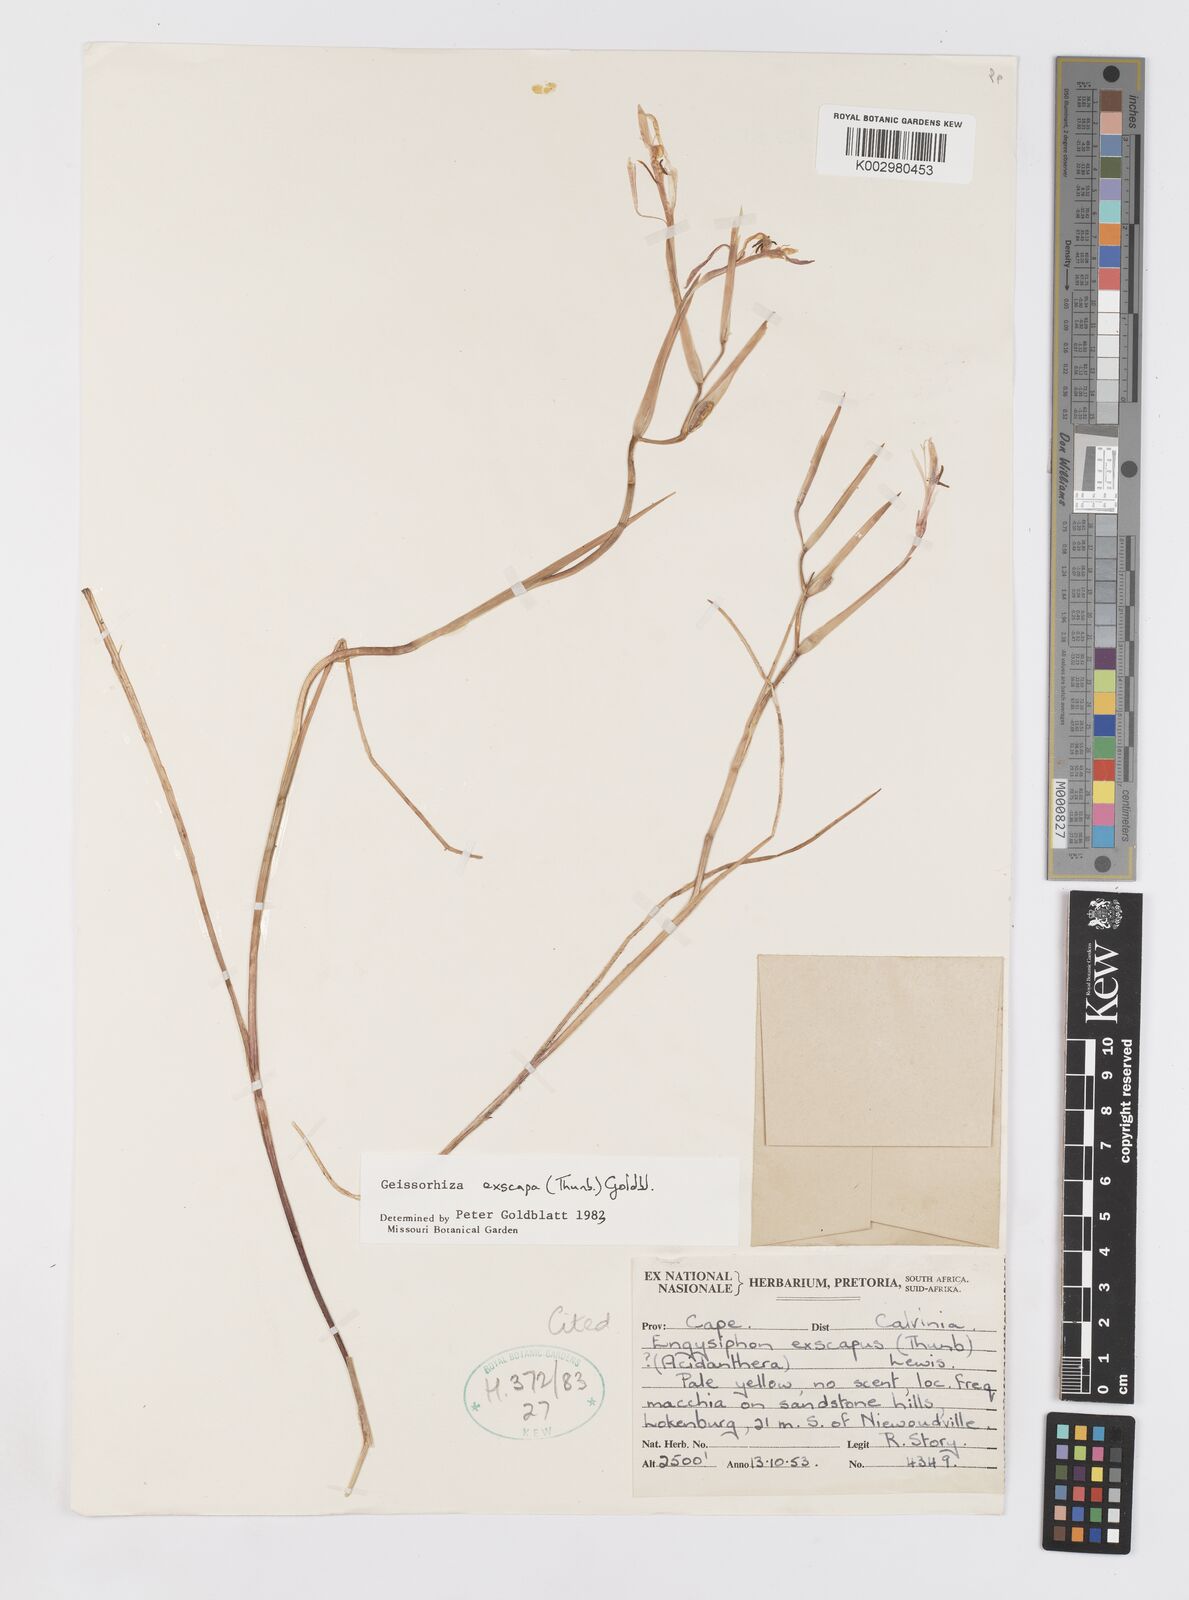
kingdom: Plantae
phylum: Tracheophyta
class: Liliopsida
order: Asparagales
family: Iridaceae
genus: Geissorhiza
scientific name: Geissorhiza exscapa
